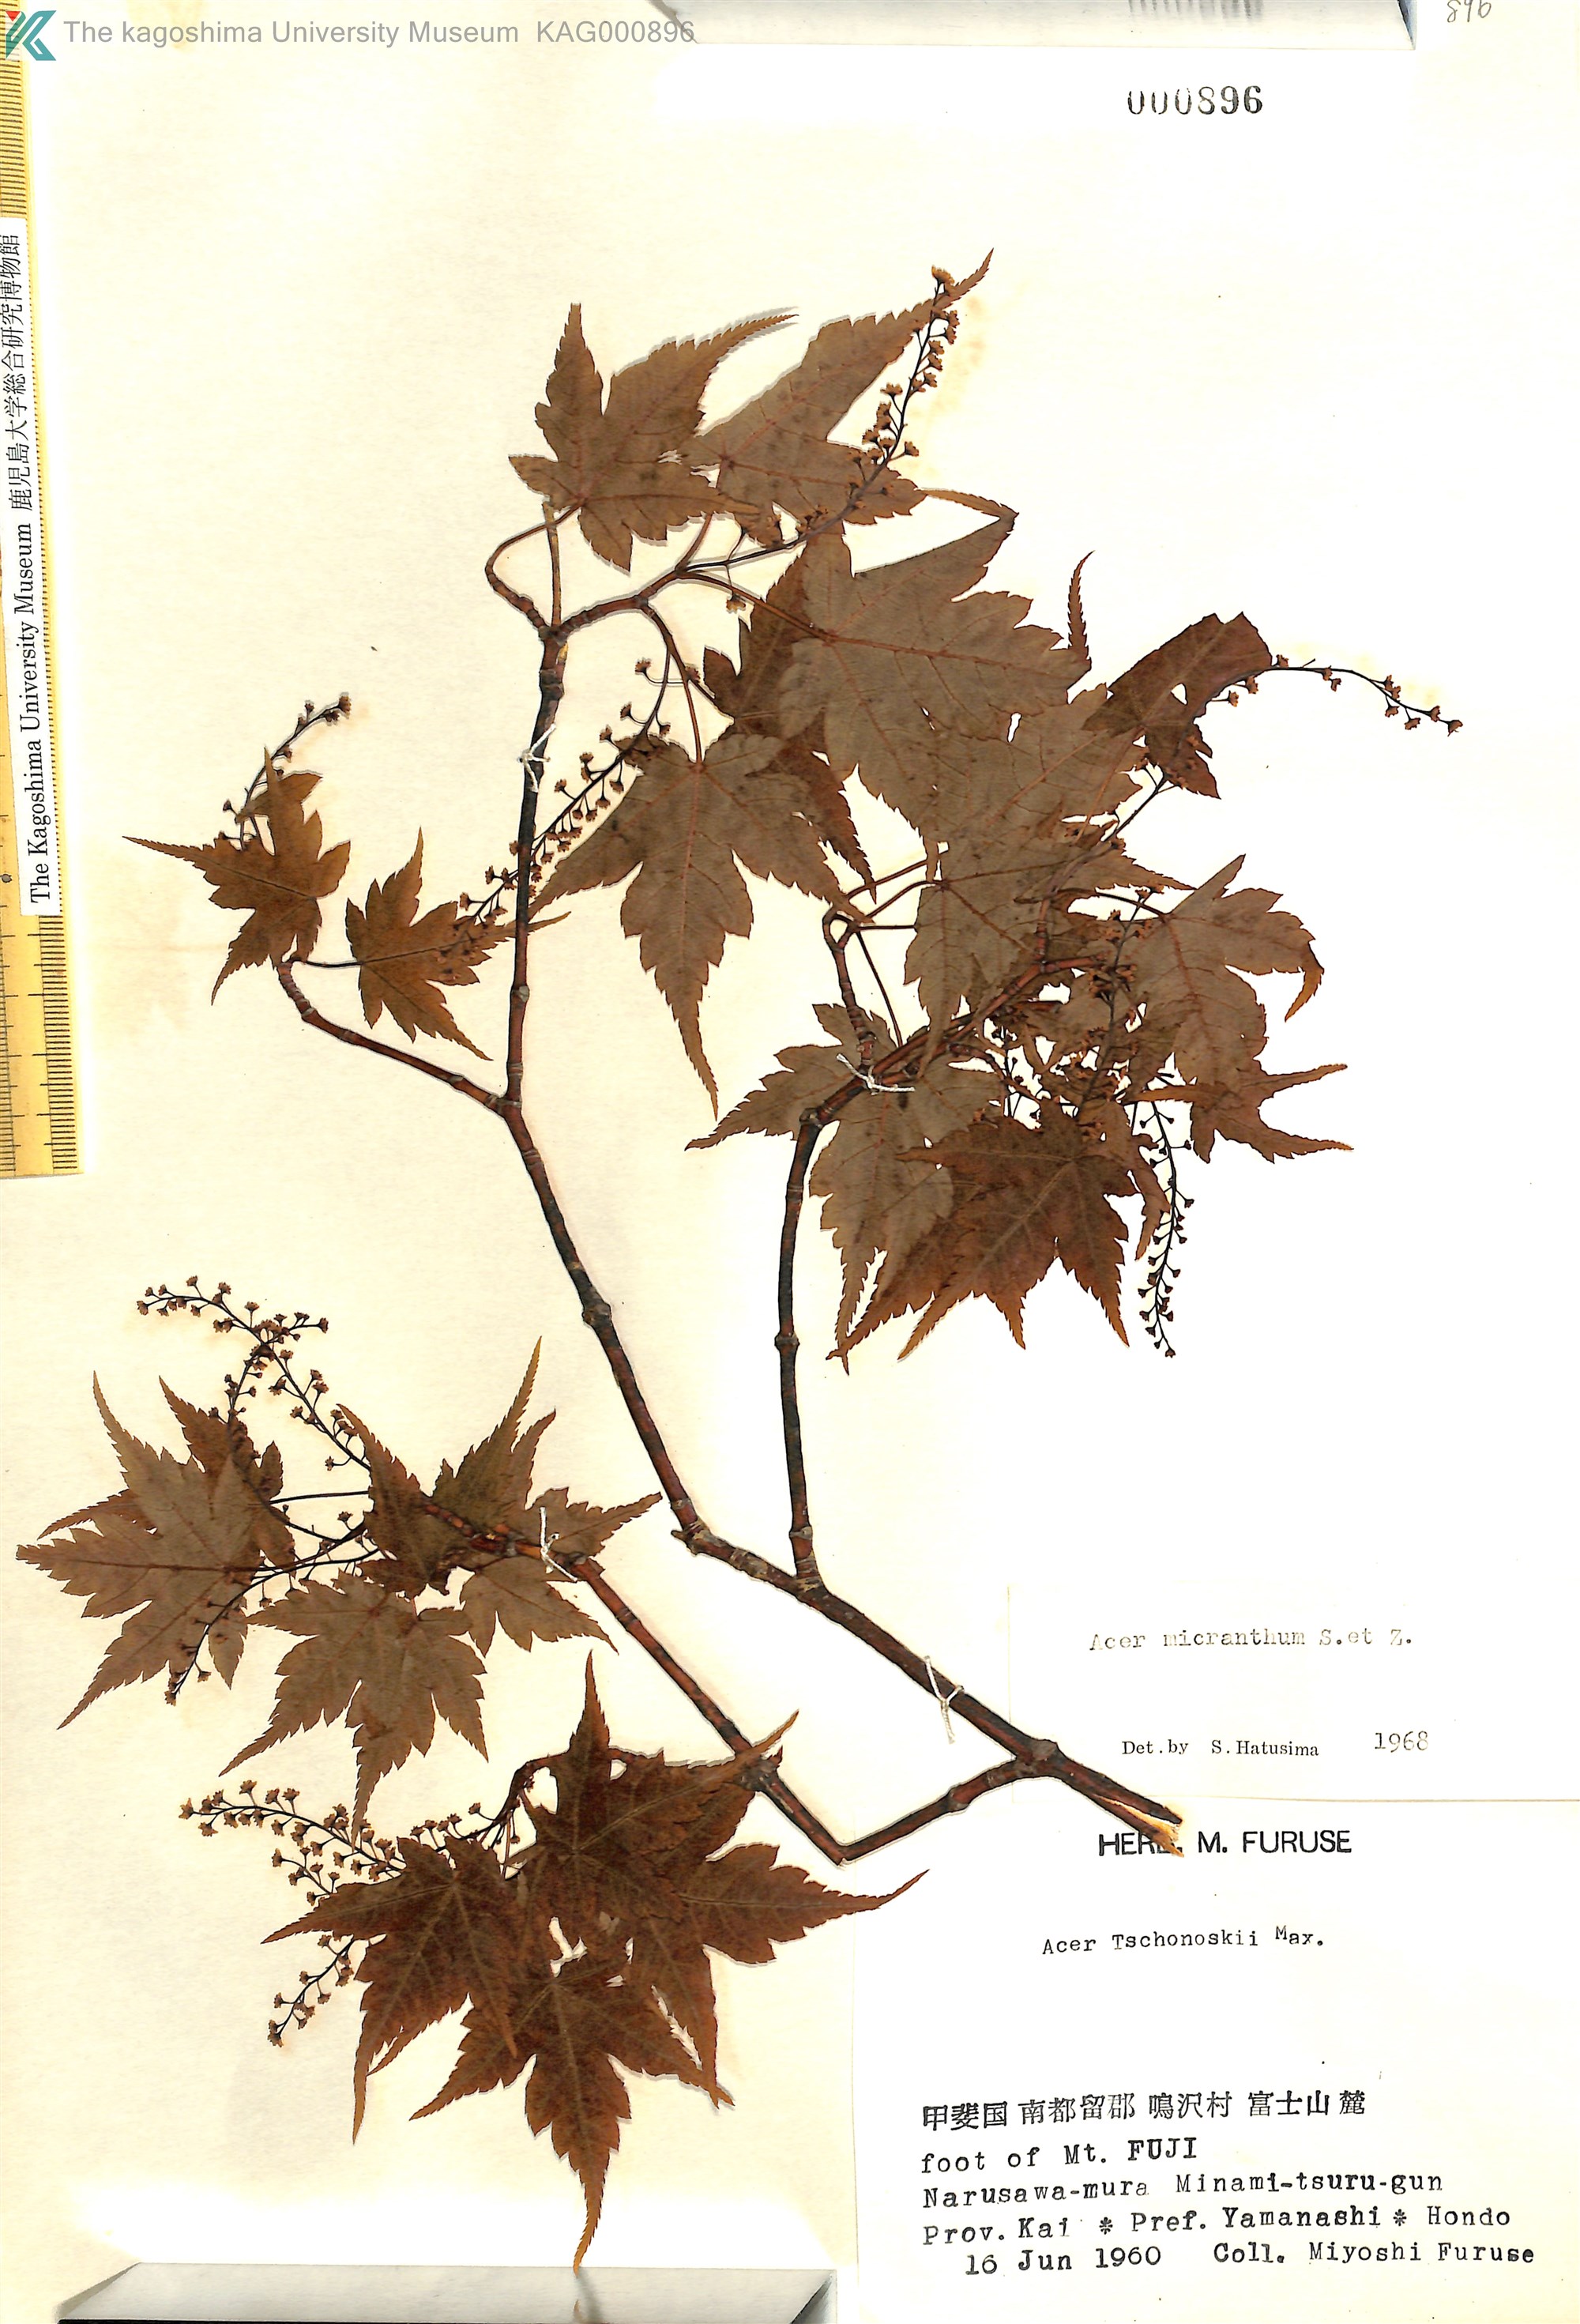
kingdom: Plantae
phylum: Tracheophyta
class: Magnoliopsida
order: Sapindales
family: Sapindaceae
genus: Acer
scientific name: Acer micranthum
